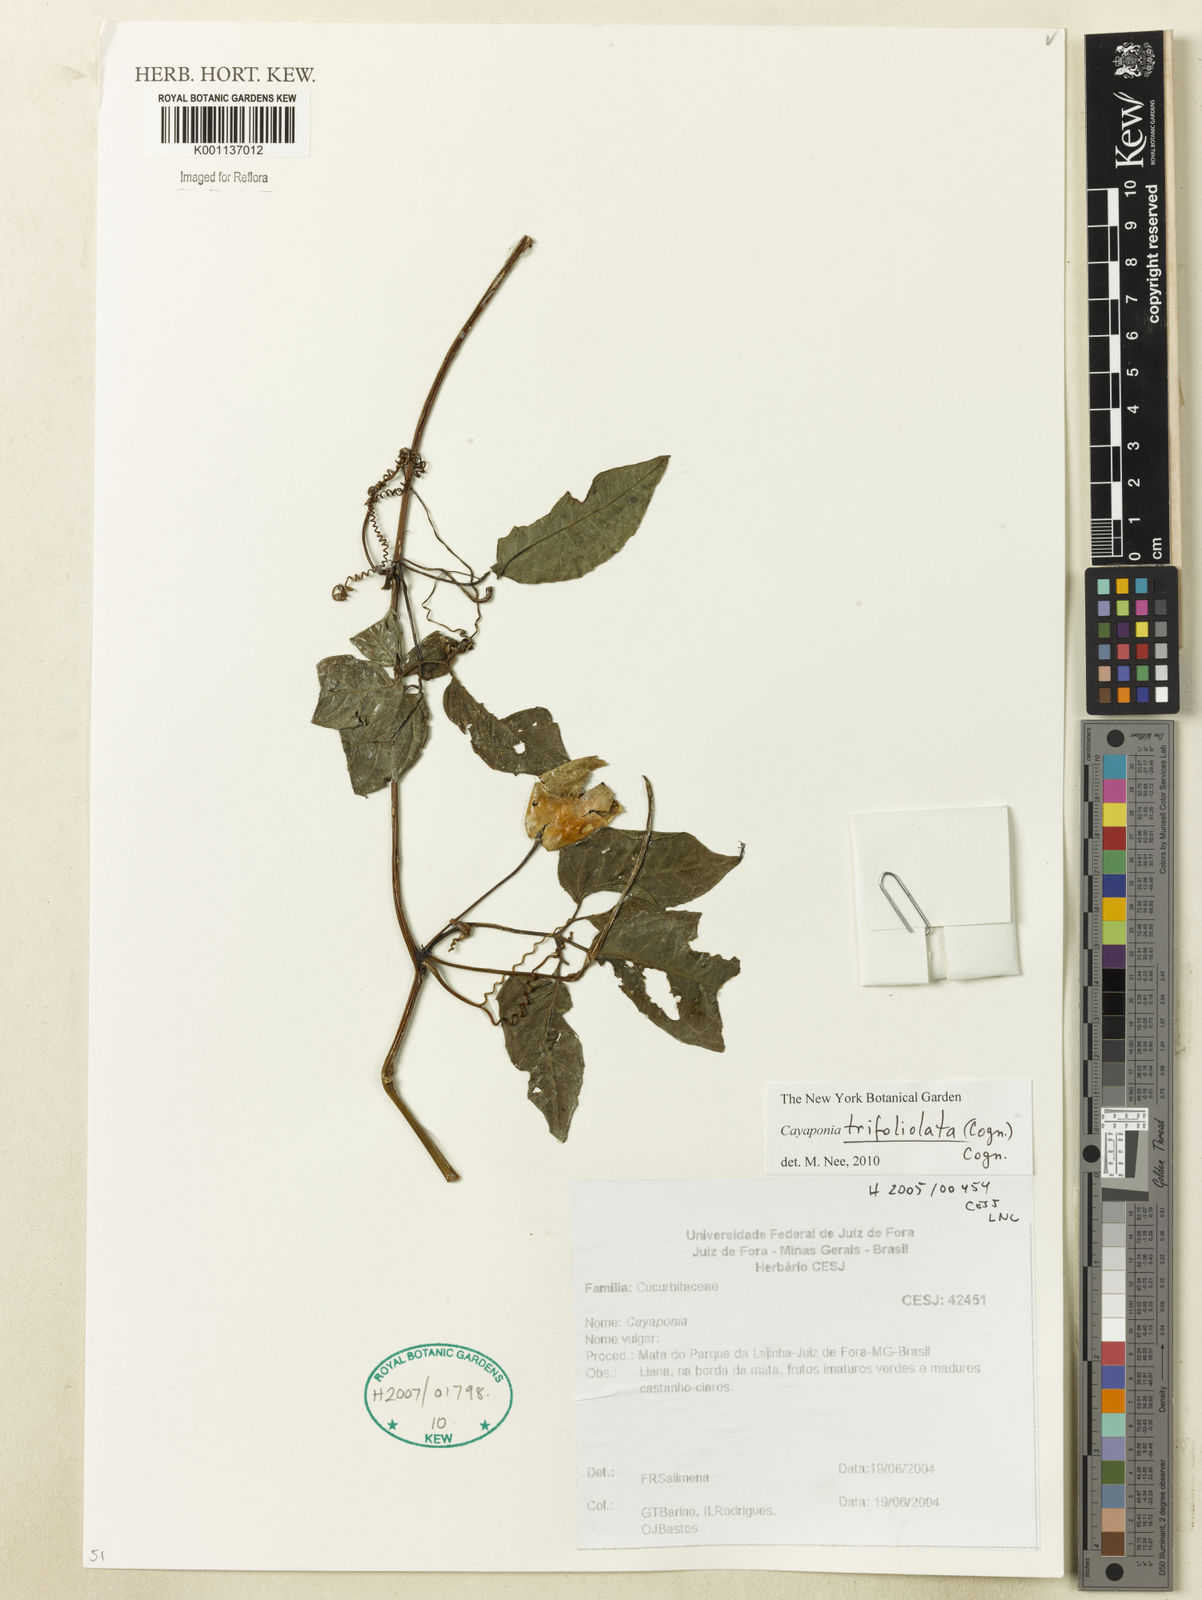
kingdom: Plantae
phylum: Tracheophyta
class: Magnoliopsida
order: Cucurbitales
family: Cucurbitaceae
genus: Cayaponia
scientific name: Cayaponia trifoliolata
